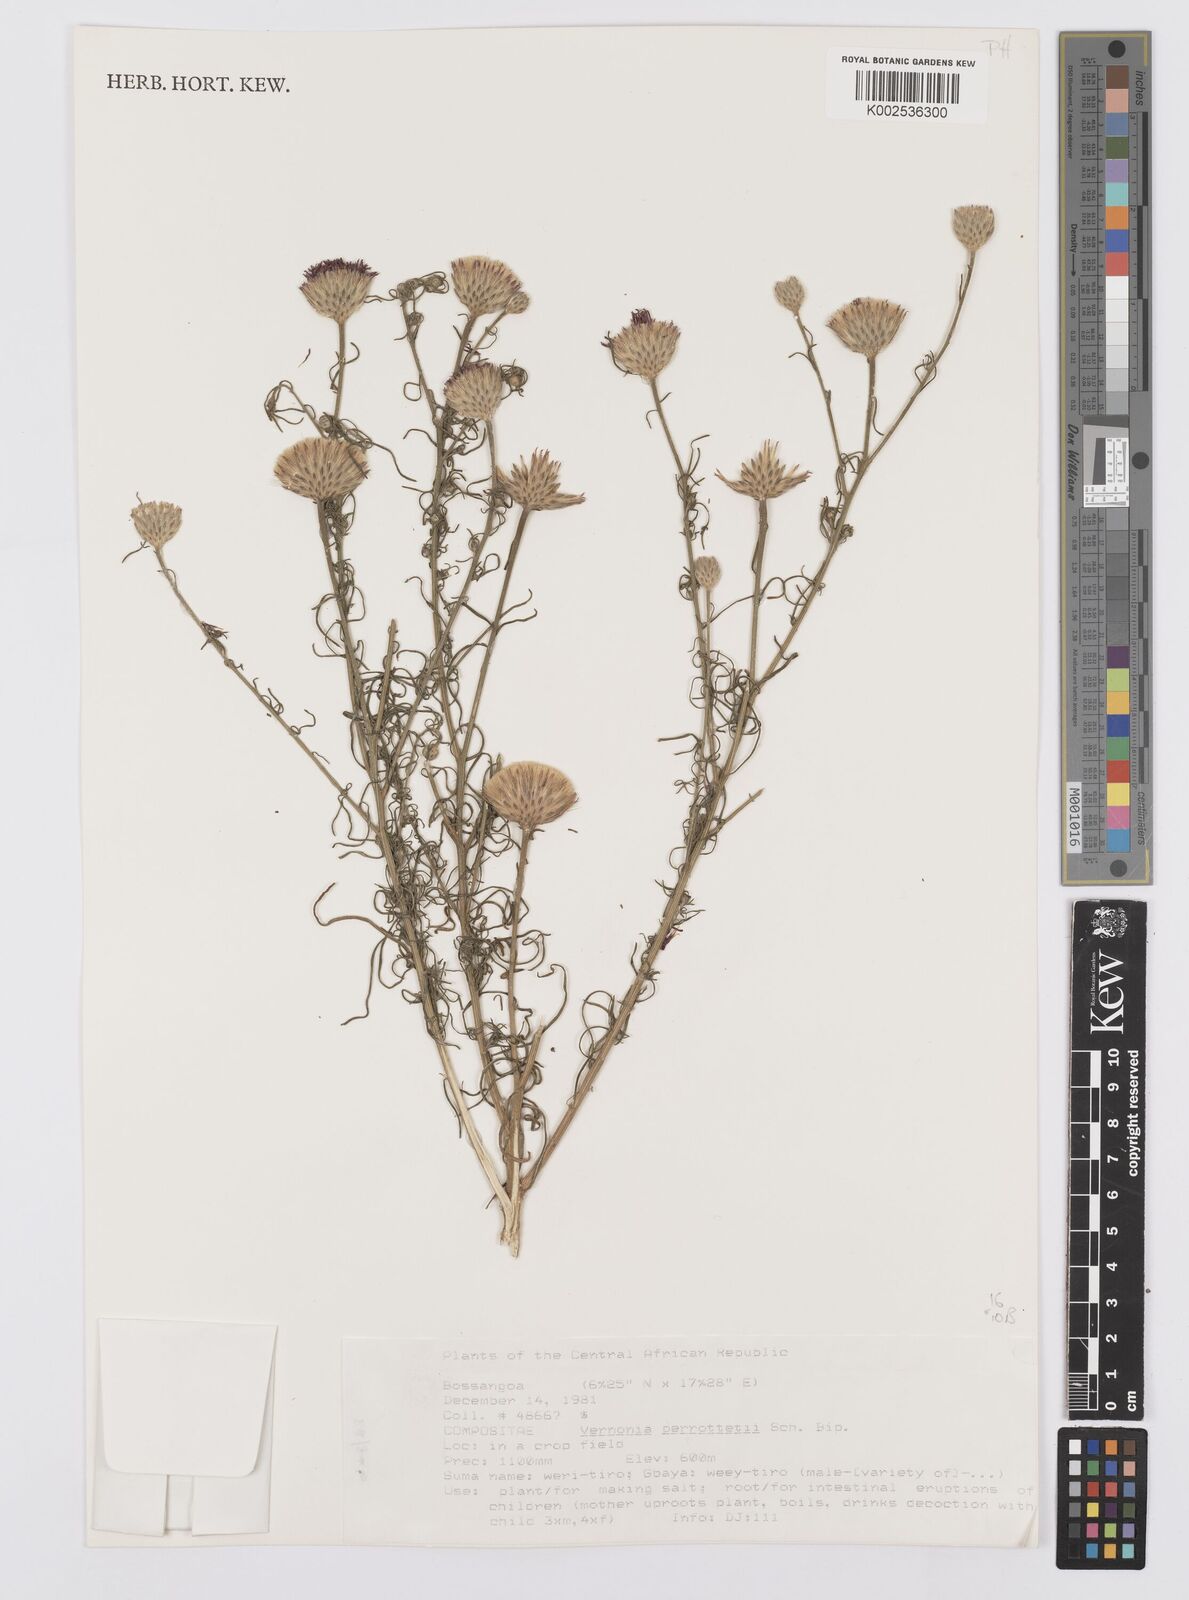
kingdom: Plantae
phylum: Tracheophyta
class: Magnoliopsida
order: Asterales
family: Asteraceae
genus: Crystallopollen
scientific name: Crystallopollen serratuloides
